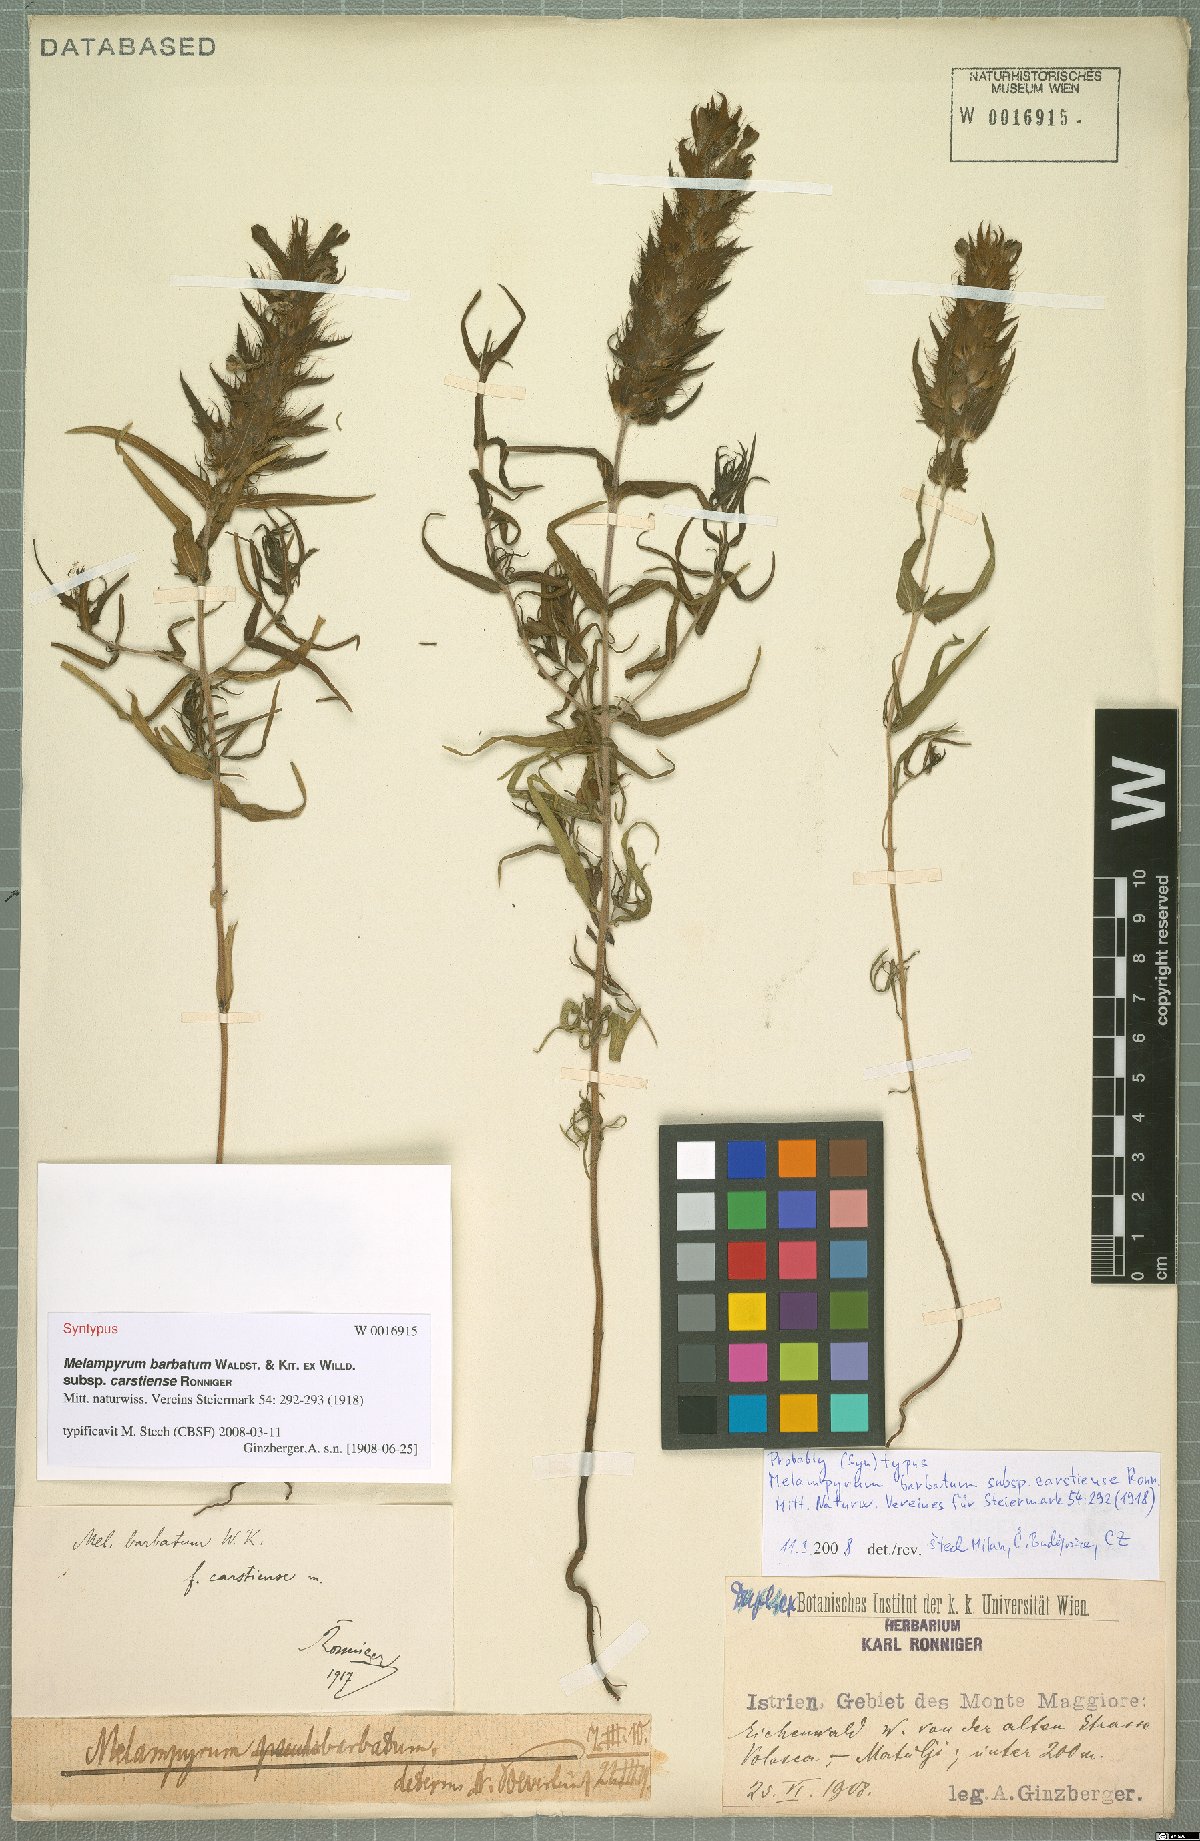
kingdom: Plantae
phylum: Tracheophyta
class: Magnoliopsida
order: Lamiales
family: Orobanchaceae
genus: Melampyrum
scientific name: Melampyrum barbatum
